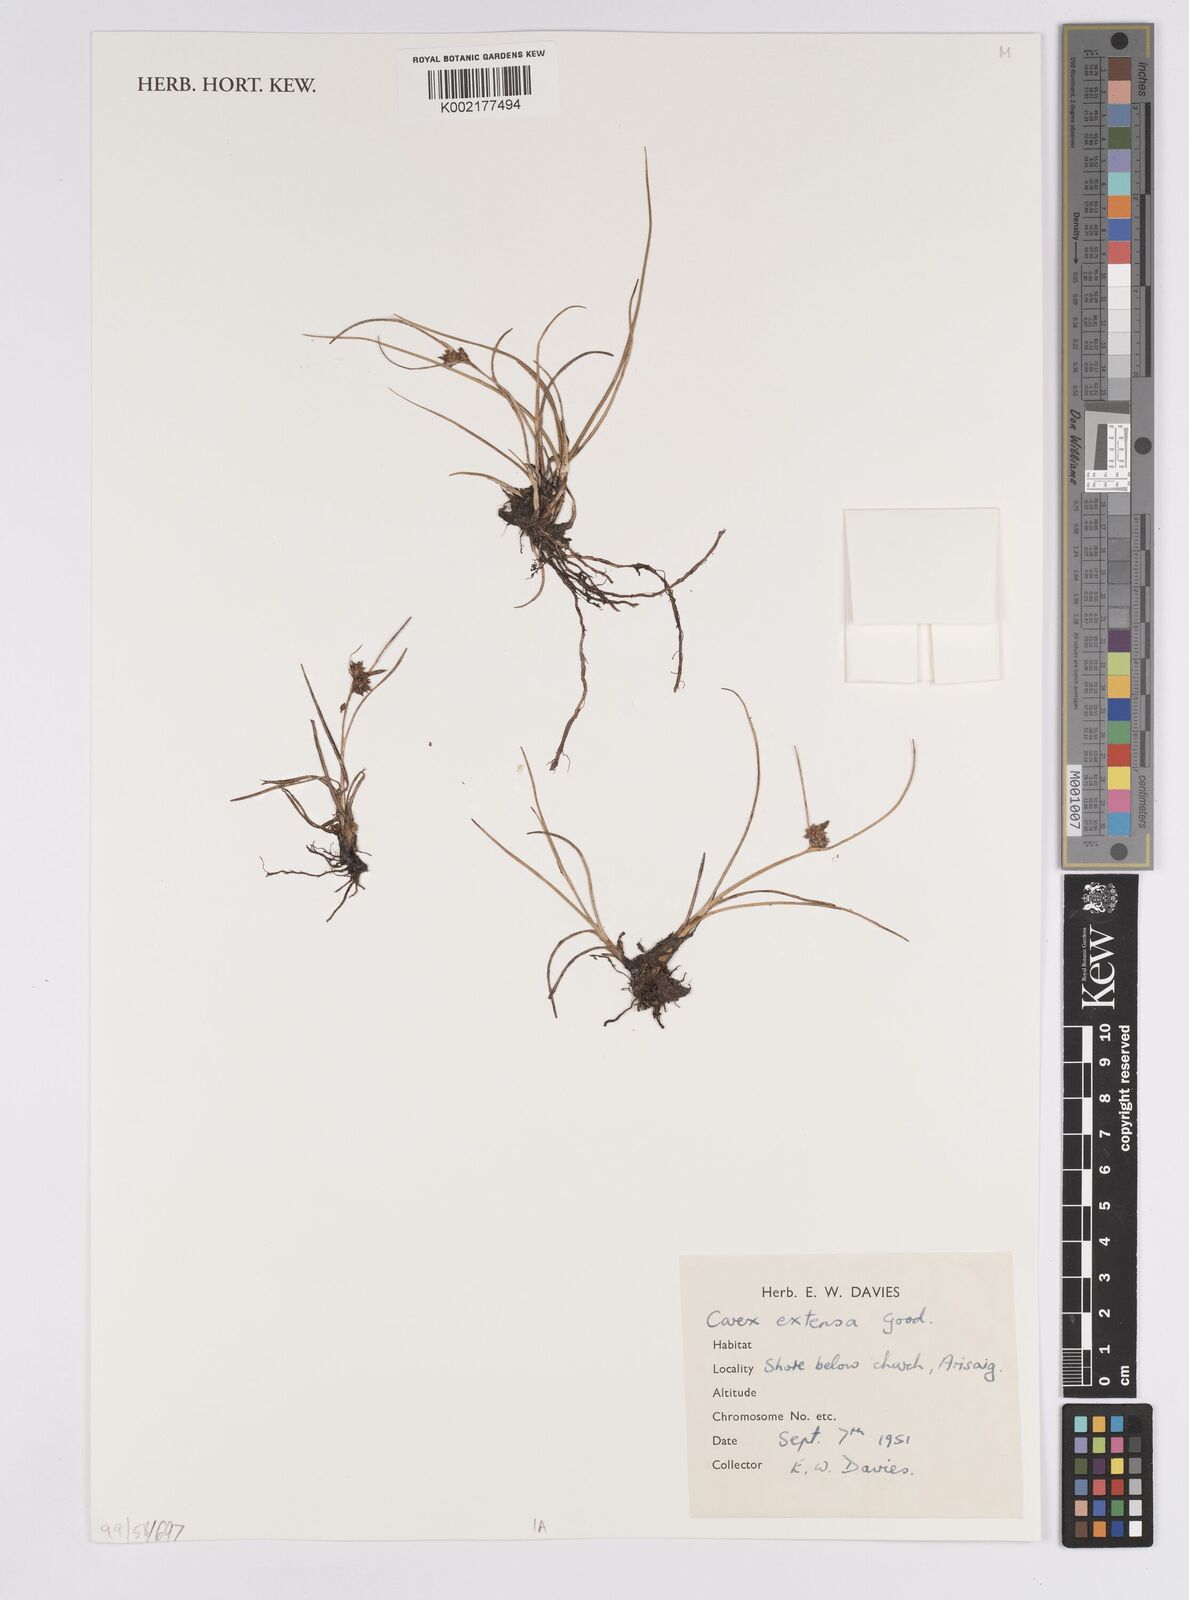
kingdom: Plantae
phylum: Tracheophyta
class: Liliopsida
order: Poales
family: Cyperaceae
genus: Carex
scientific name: Carex extensa
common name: Long-bracted sedge
